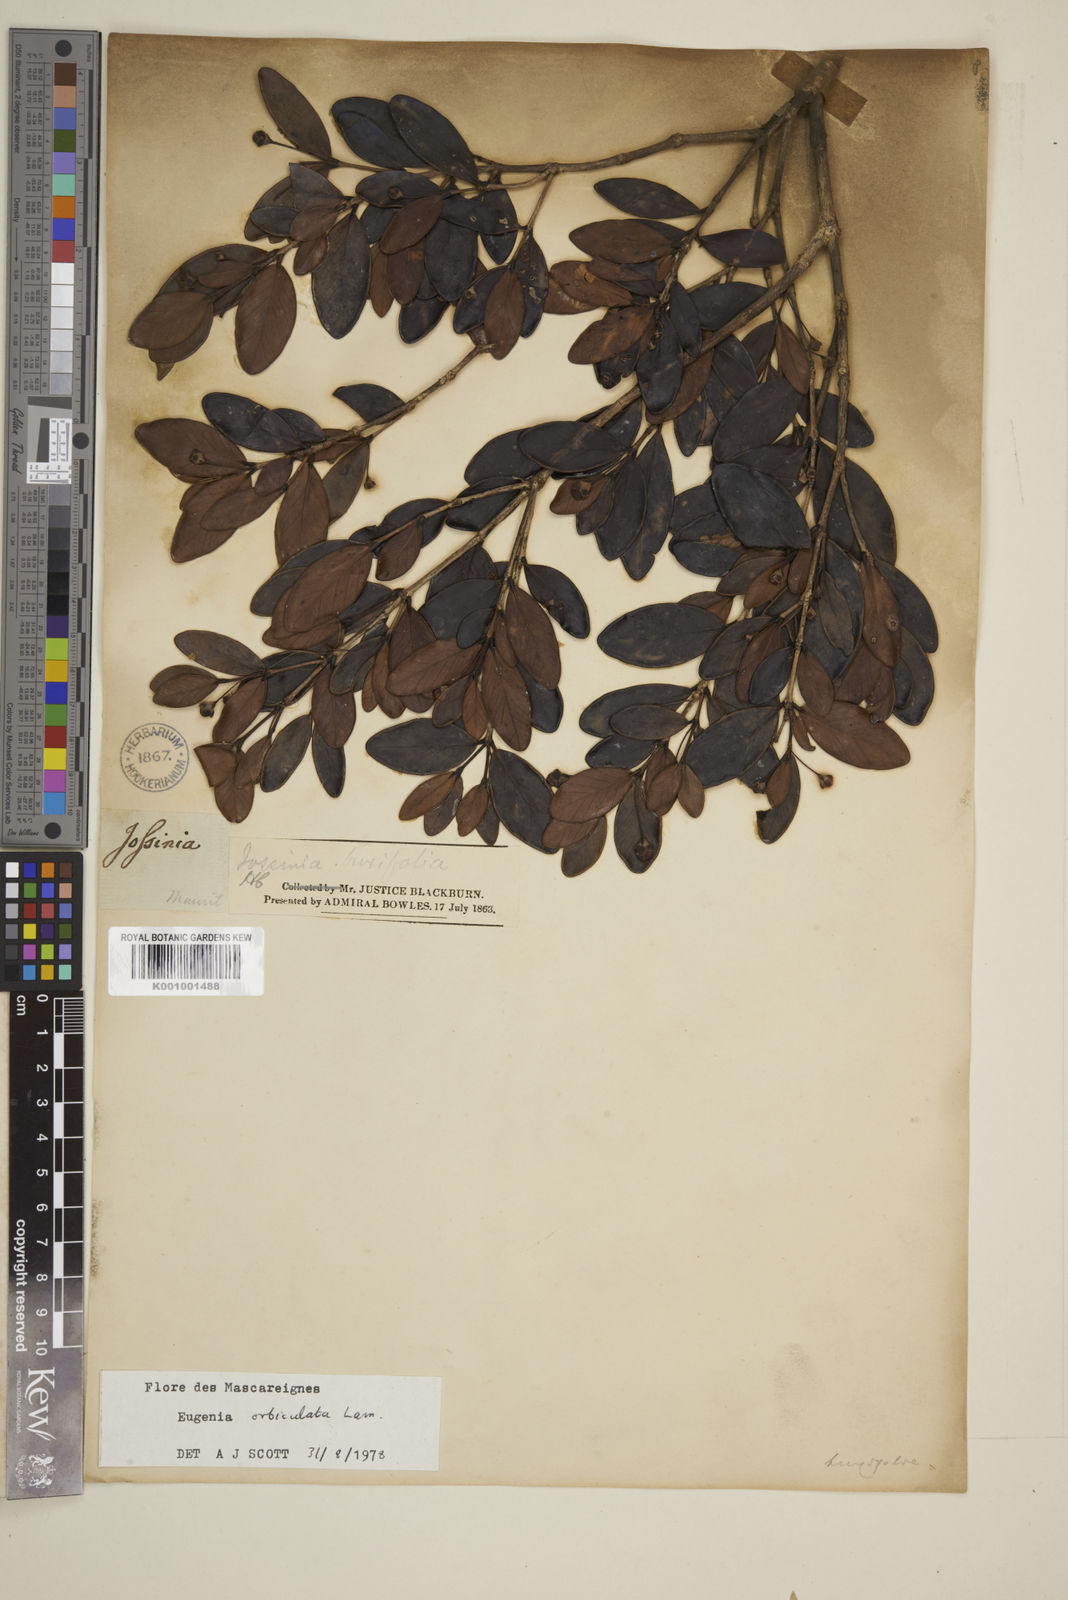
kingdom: Plantae
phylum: Tracheophyta
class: Magnoliopsida
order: Myrtales
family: Myrtaceae
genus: Eugenia
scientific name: Eugenia orbiculata
